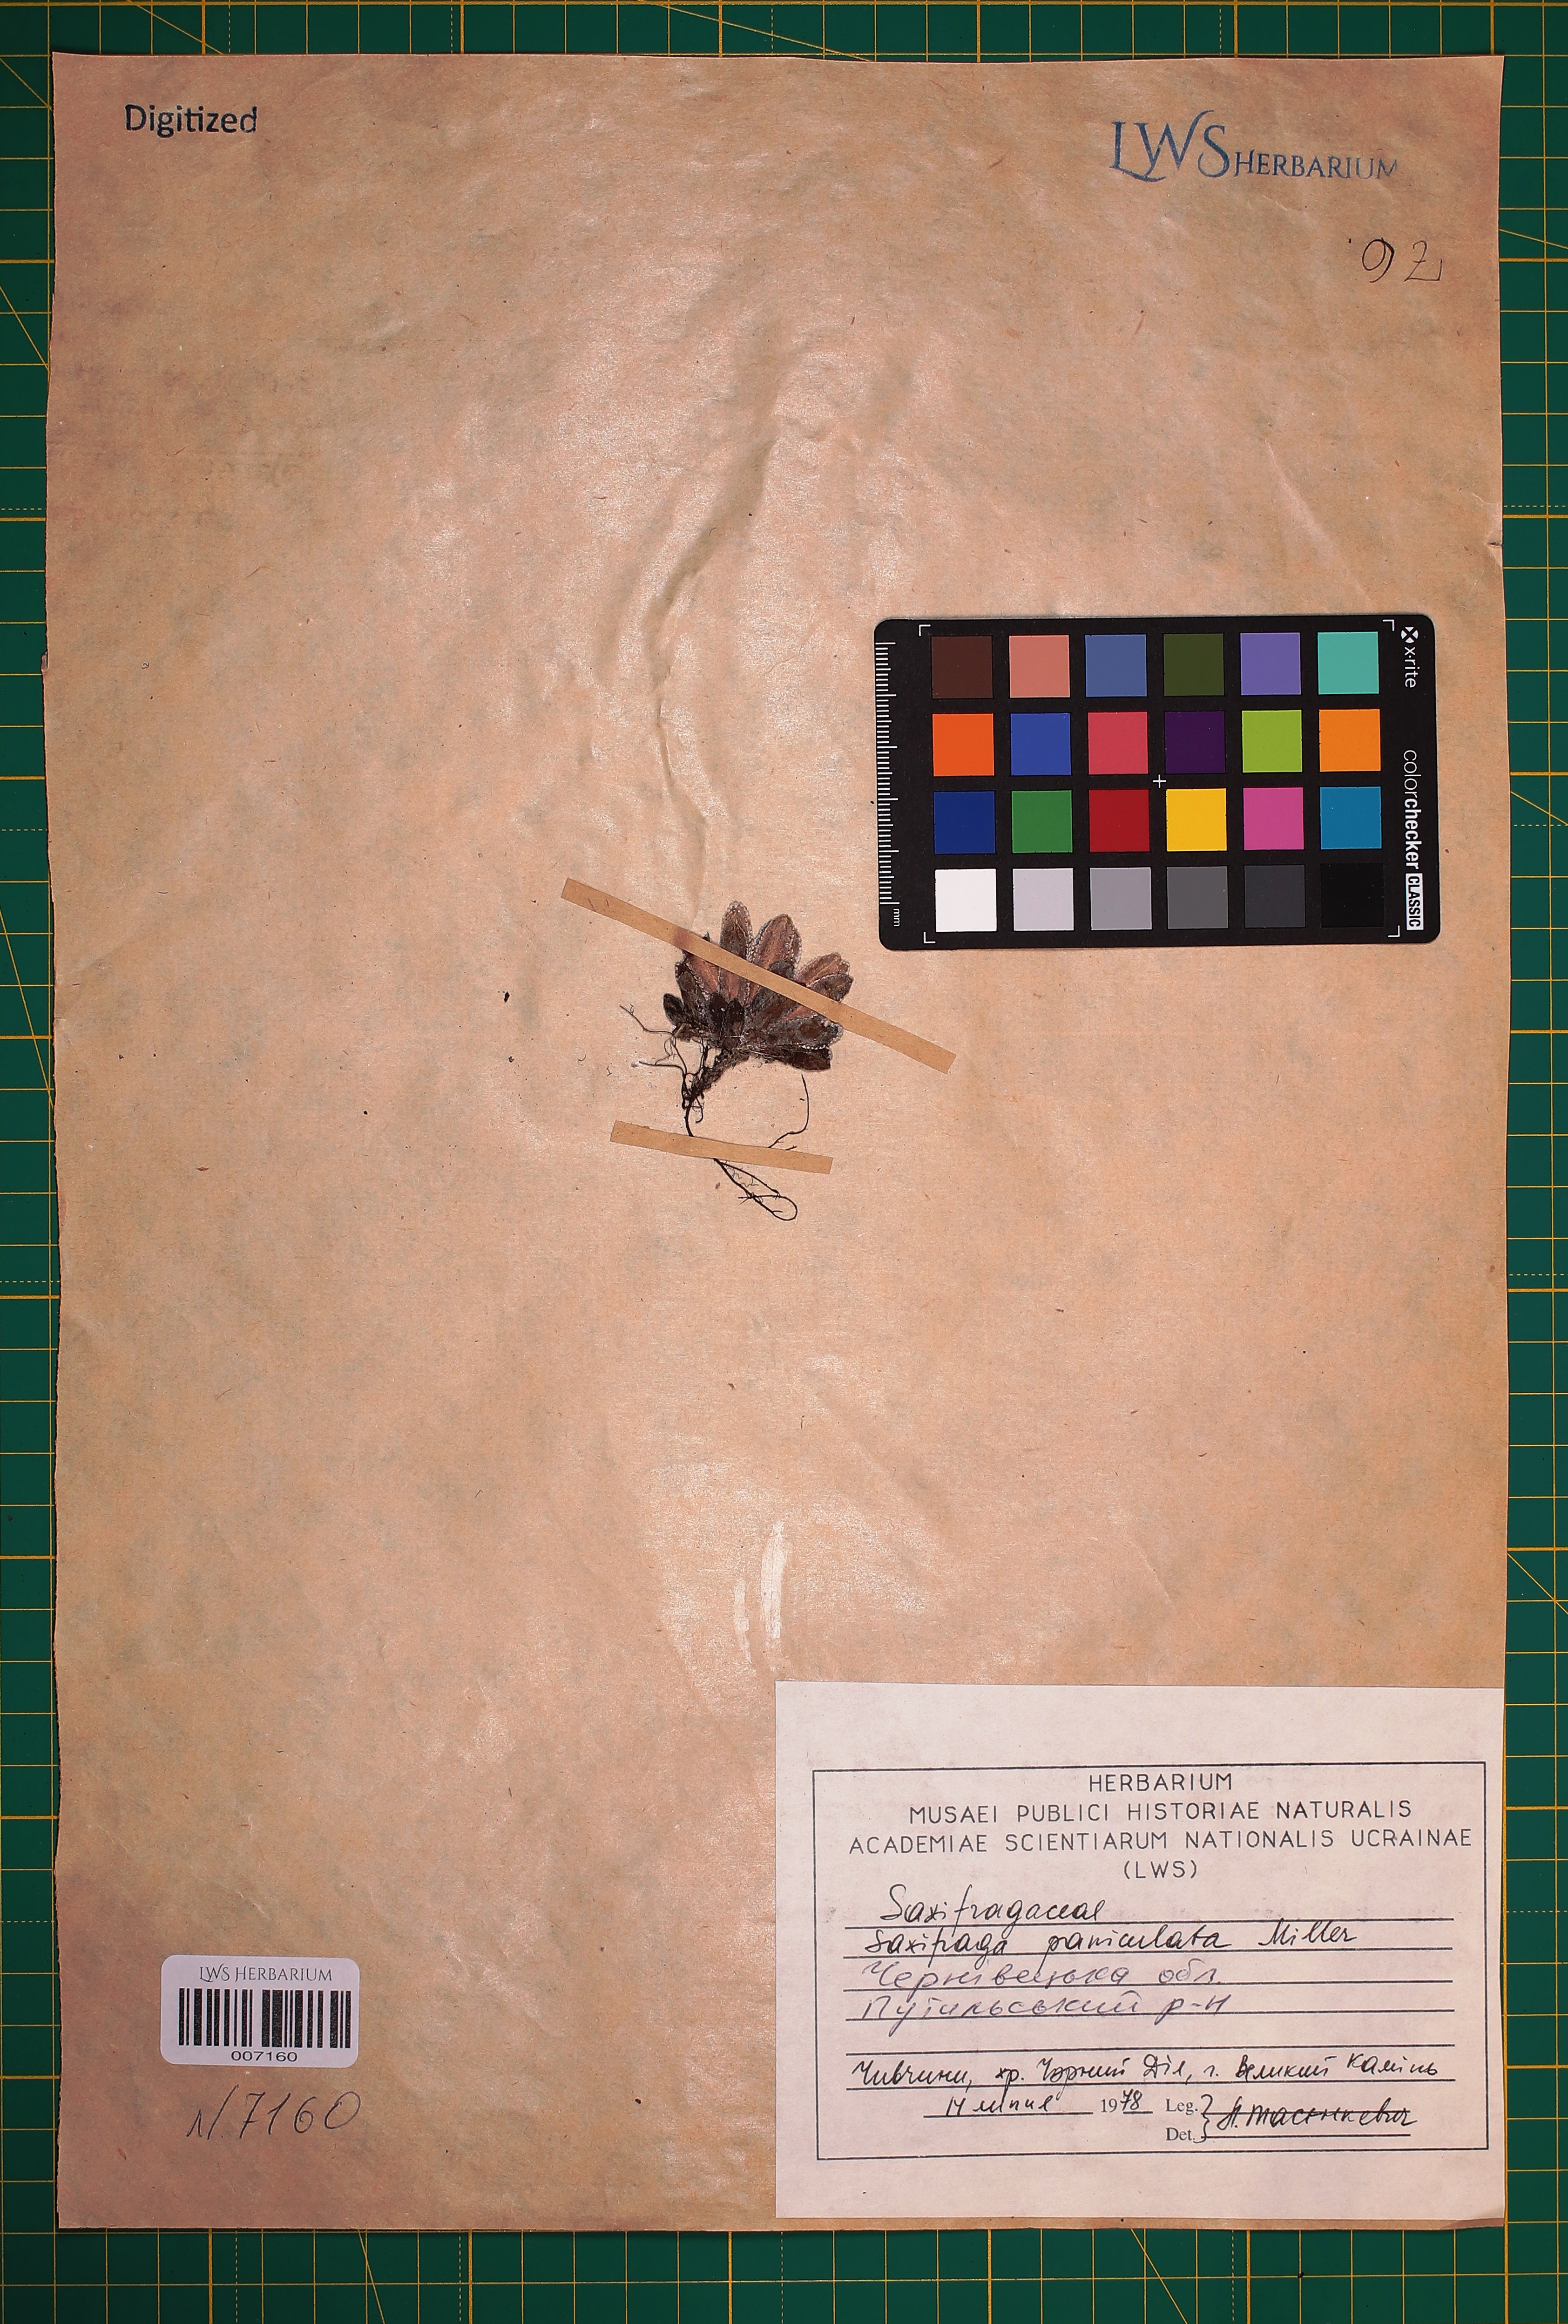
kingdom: Plantae
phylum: Tracheophyta
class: Magnoliopsida
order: Saxifragales
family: Saxifragaceae
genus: Saxifraga
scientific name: Saxifraga paniculata
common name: Livelong saxifrage
